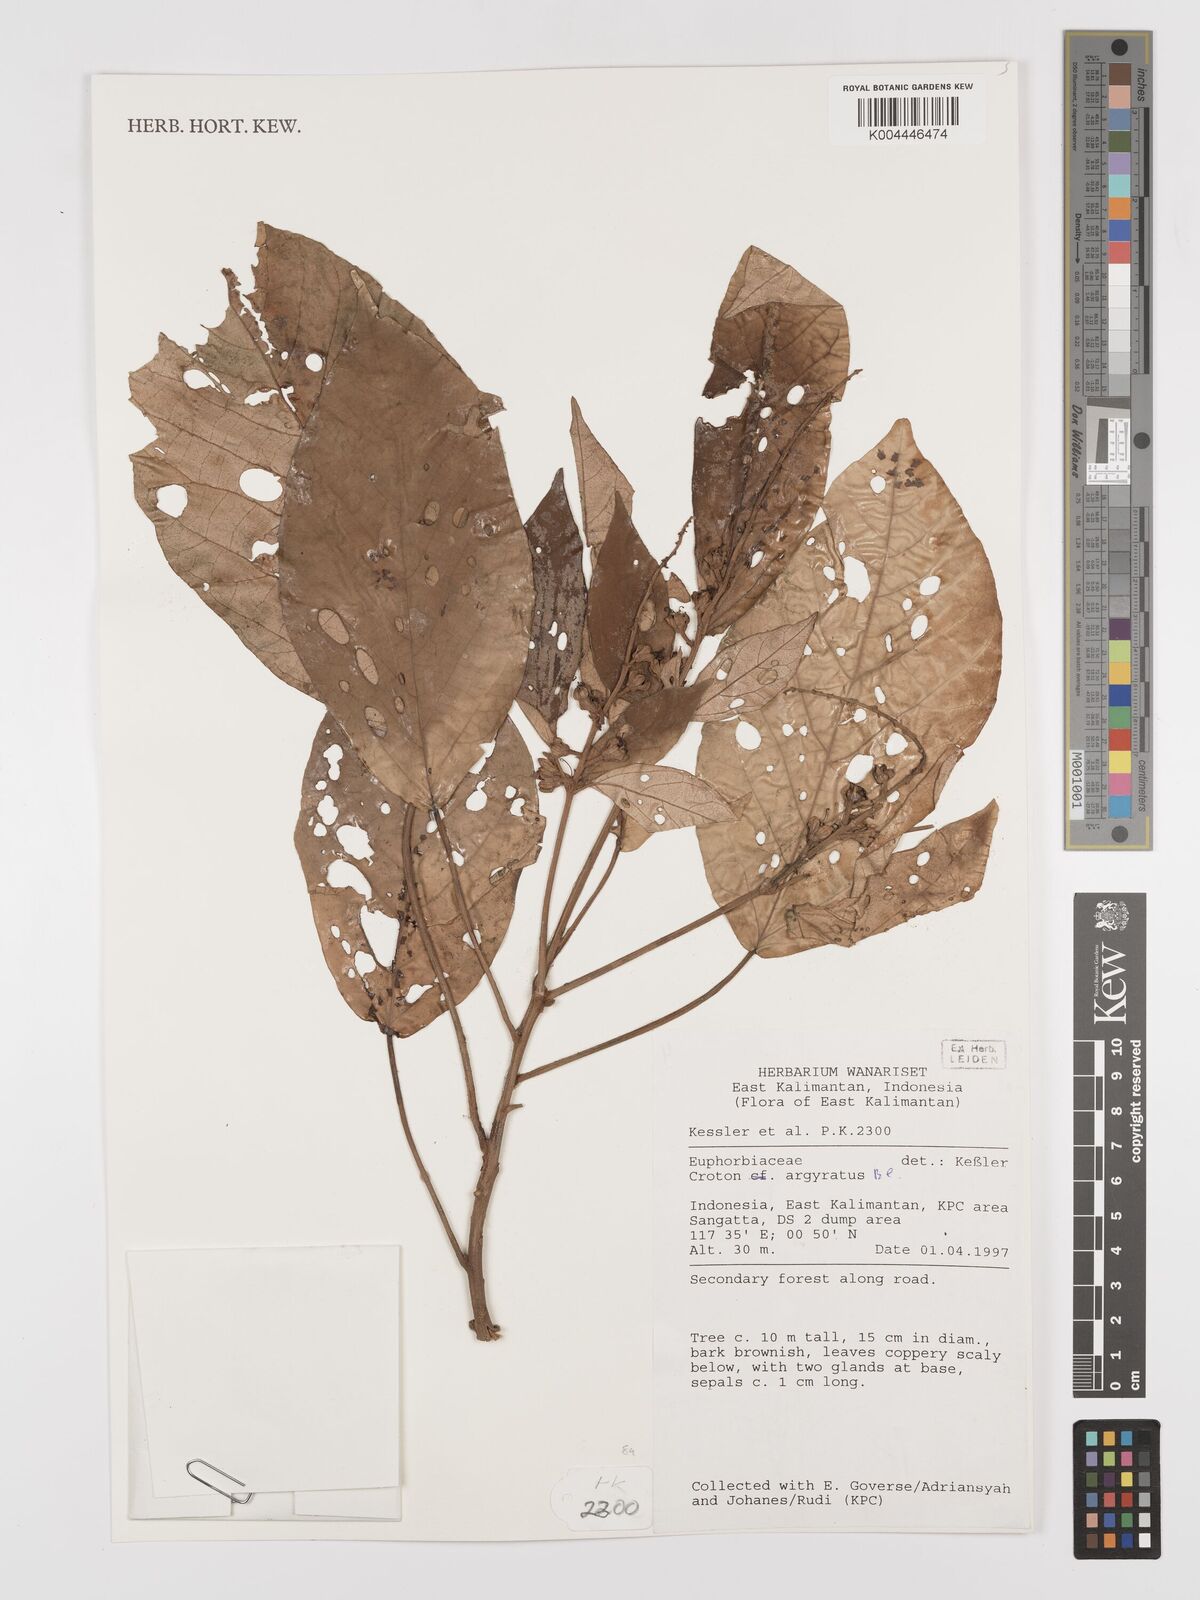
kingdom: Plantae
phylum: Tracheophyta
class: Magnoliopsida
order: Malpighiales
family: Euphorbiaceae
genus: Croton
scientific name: Croton argyratus
